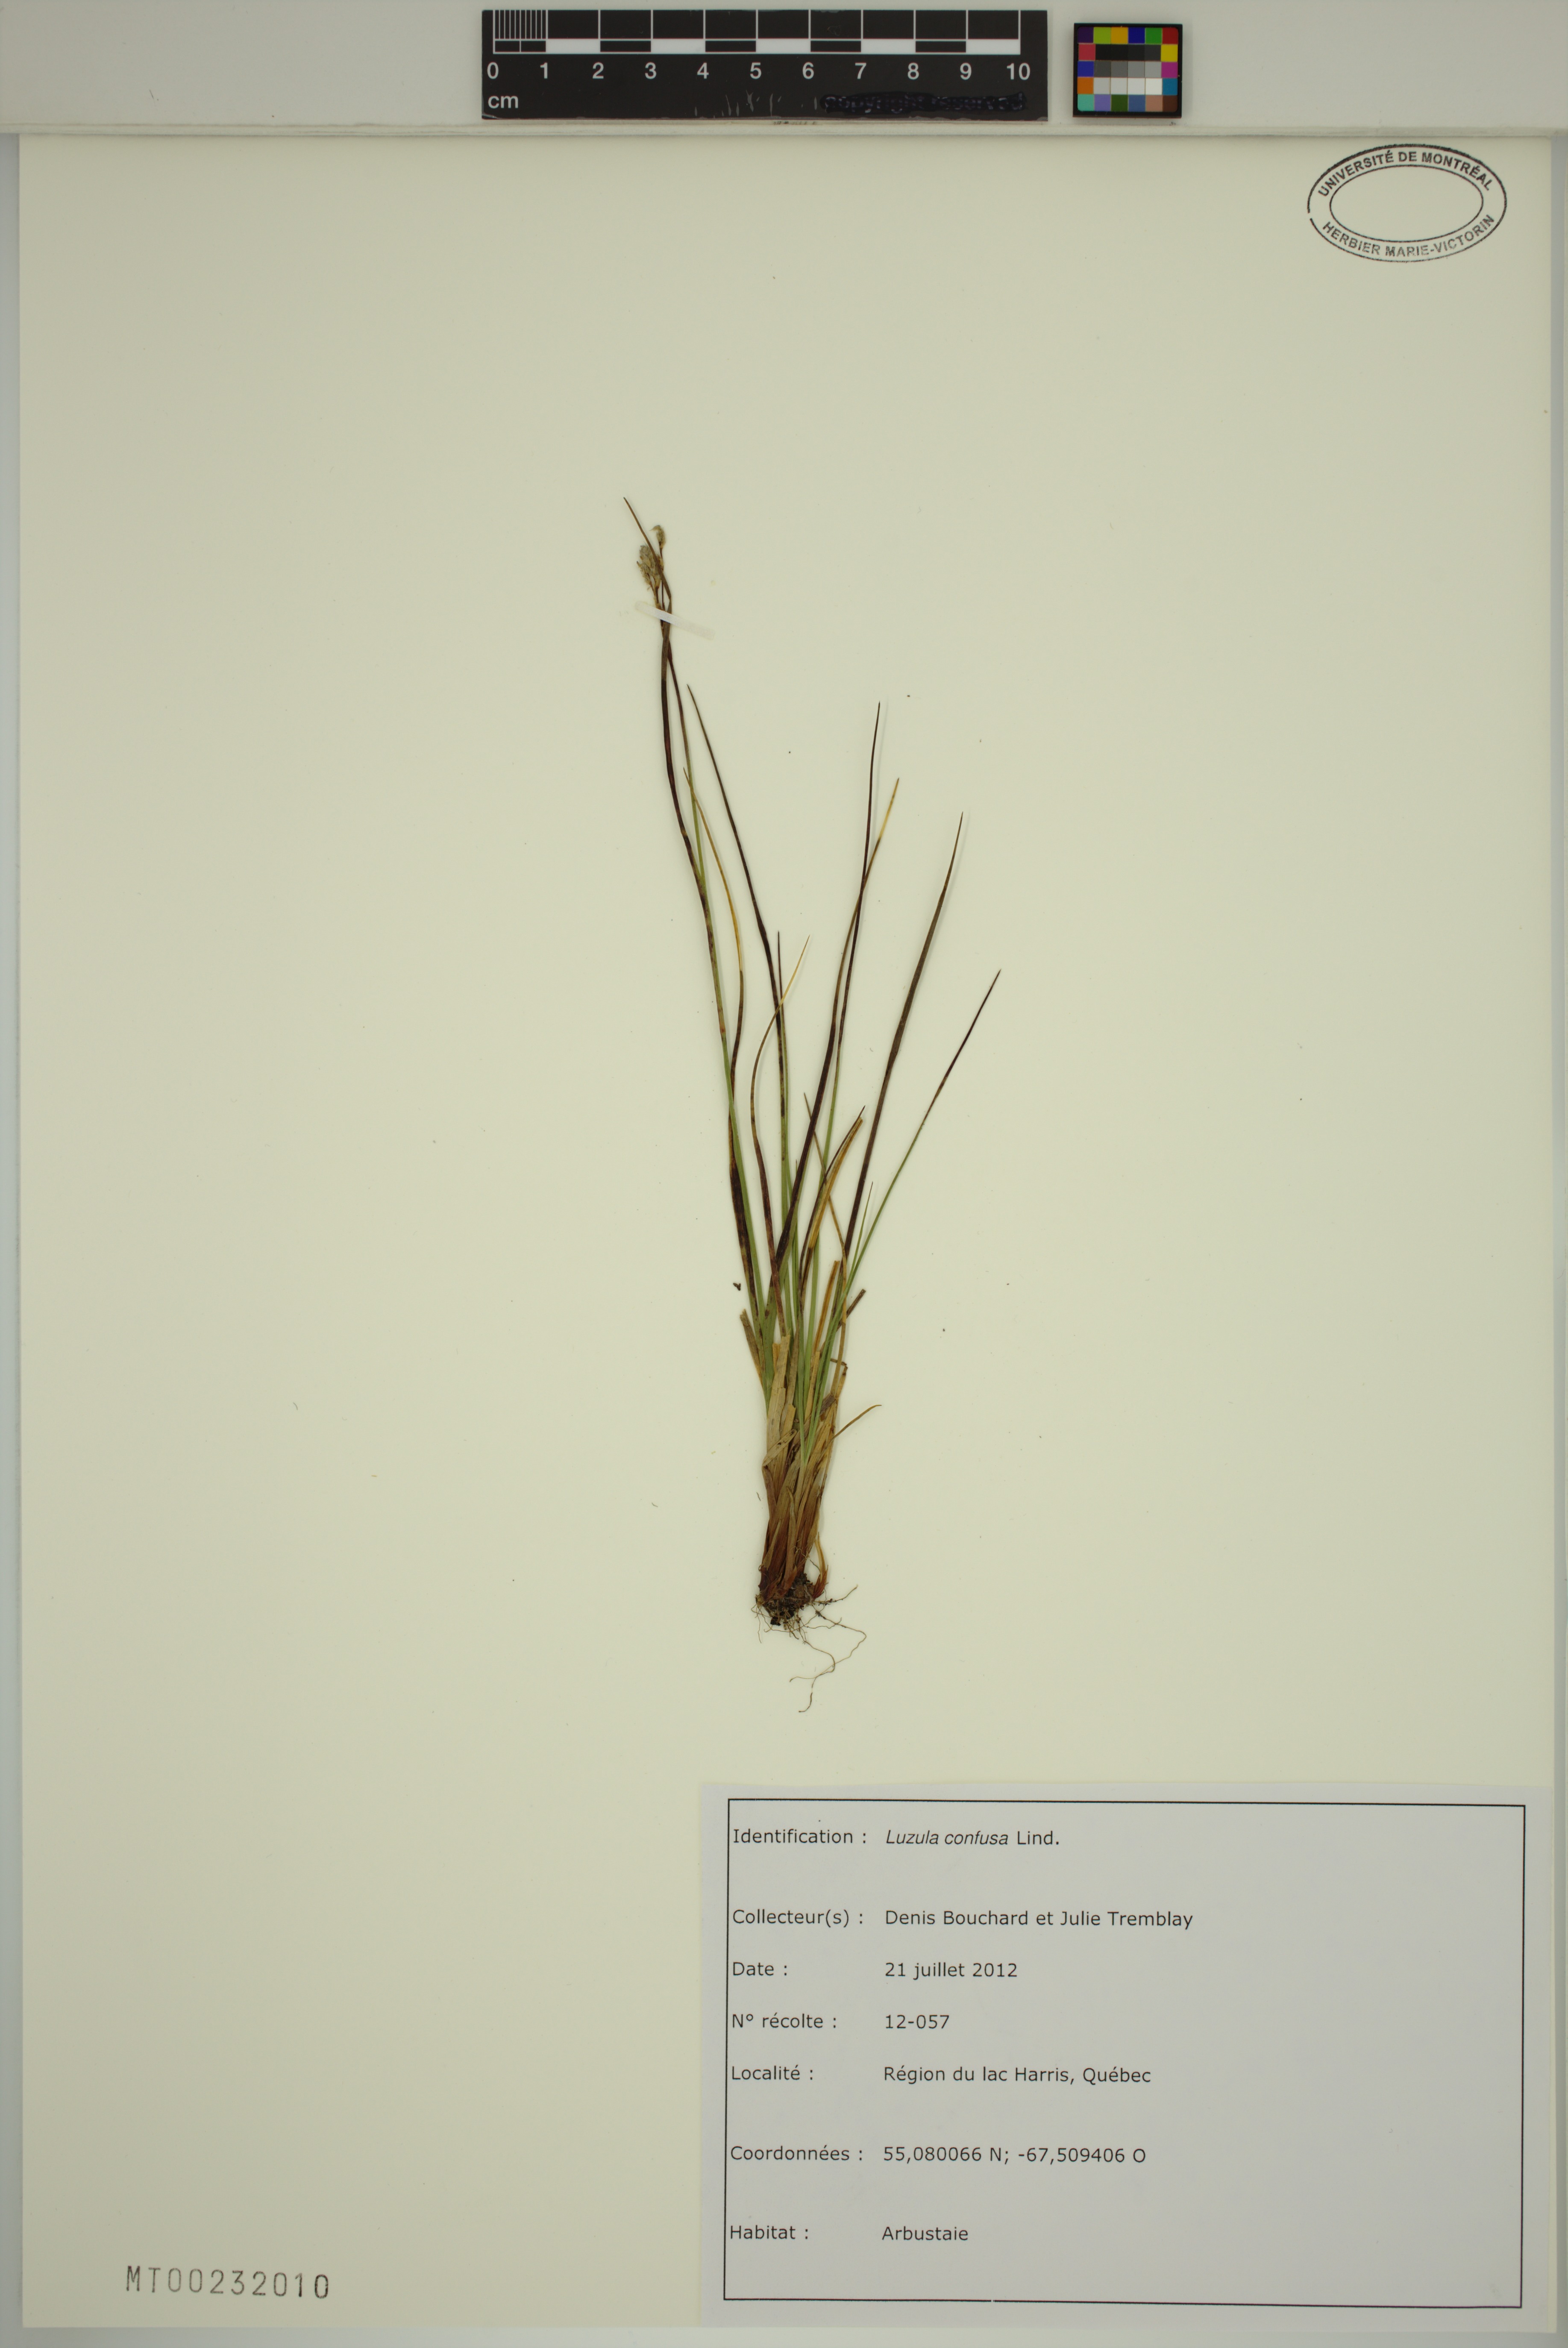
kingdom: Plantae
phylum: Tracheophyta
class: Liliopsida
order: Poales
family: Juncaceae
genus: Luzula
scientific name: Luzula confusa
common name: Northern wood rush
